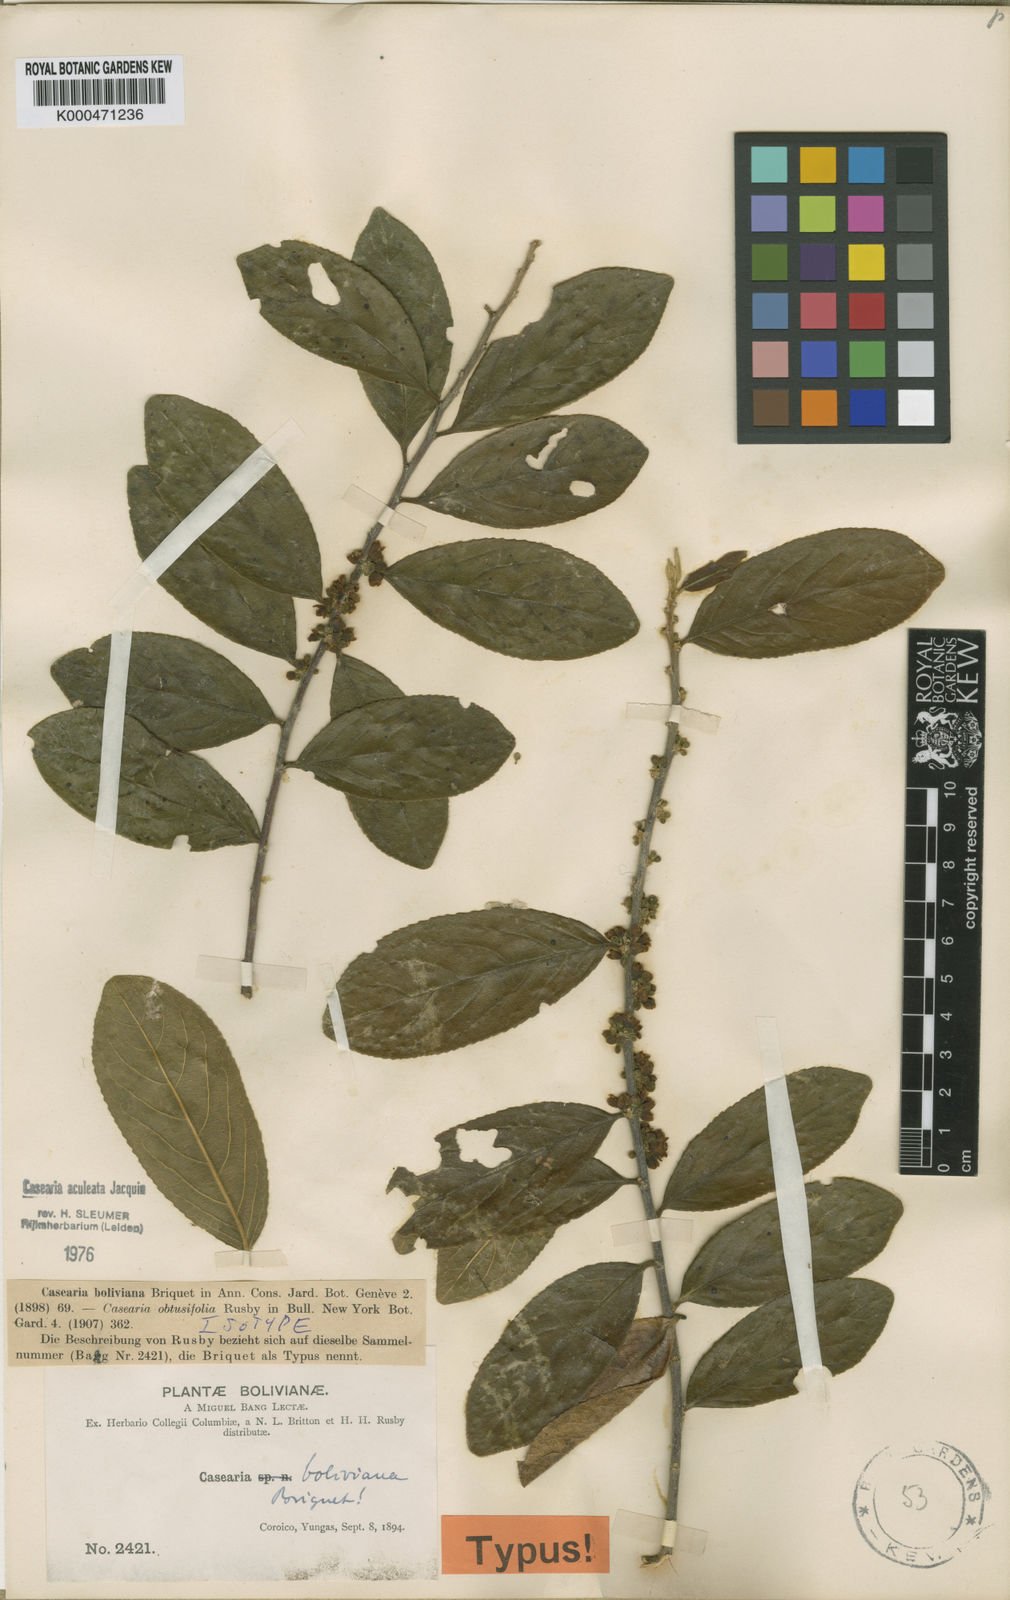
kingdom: Plantae
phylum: Tracheophyta
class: Magnoliopsida
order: Malpighiales
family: Salicaceae
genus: Casearia
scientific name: Casearia aculeata
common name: Cockspur
